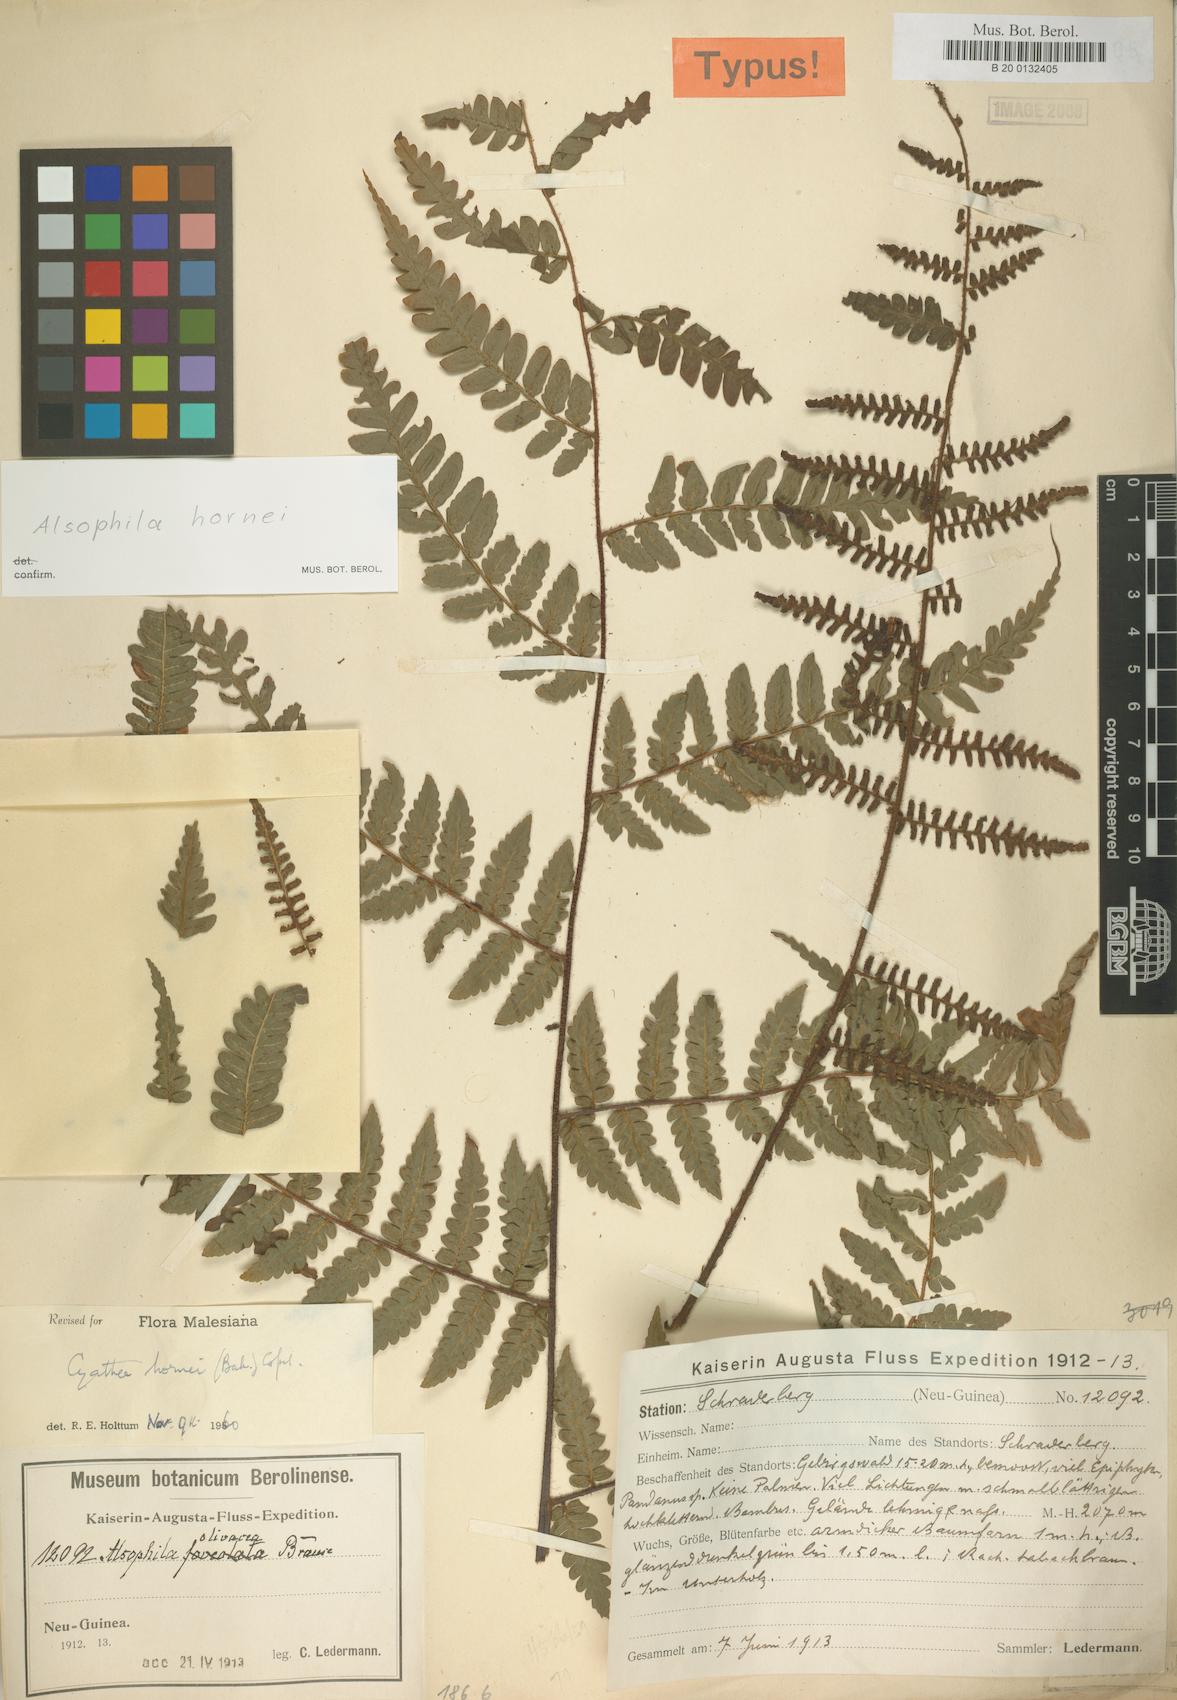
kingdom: Plantae
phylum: Tracheophyta
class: Polypodiopsida
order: Cyatheales
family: Cyatheaceae
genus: Gymnosphaera
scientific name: Gymnosphaera hornei
